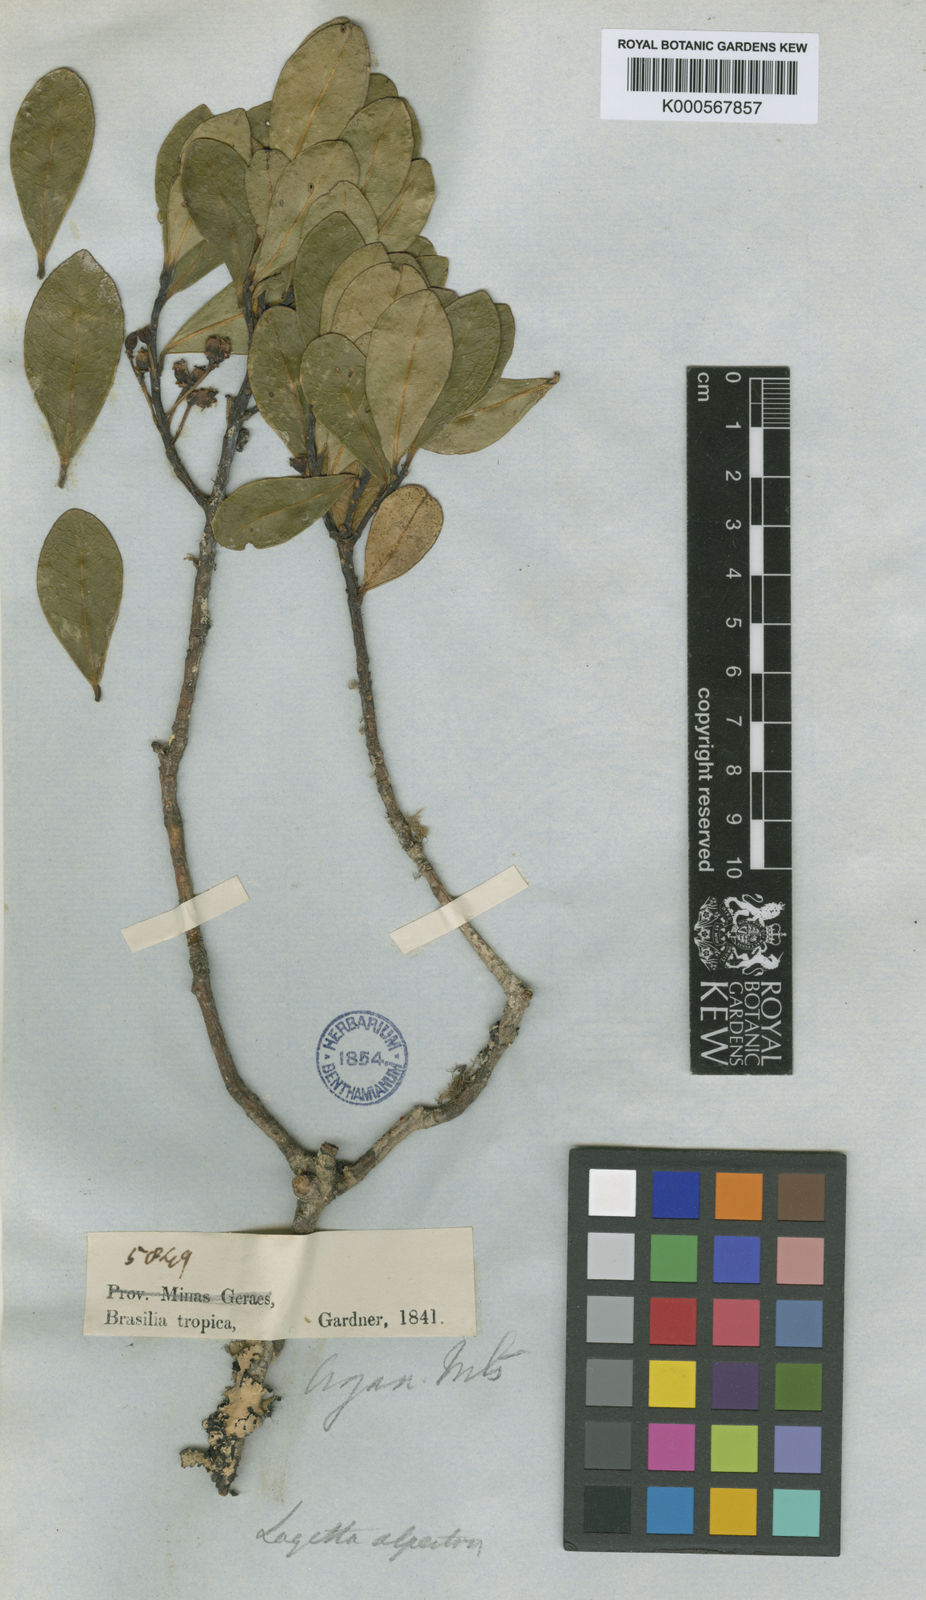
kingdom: Plantae
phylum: Tracheophyta
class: Magnoliopsida
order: Malvales
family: Thymelaeaceae
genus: Daphnopsis
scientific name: Daphnopsis
